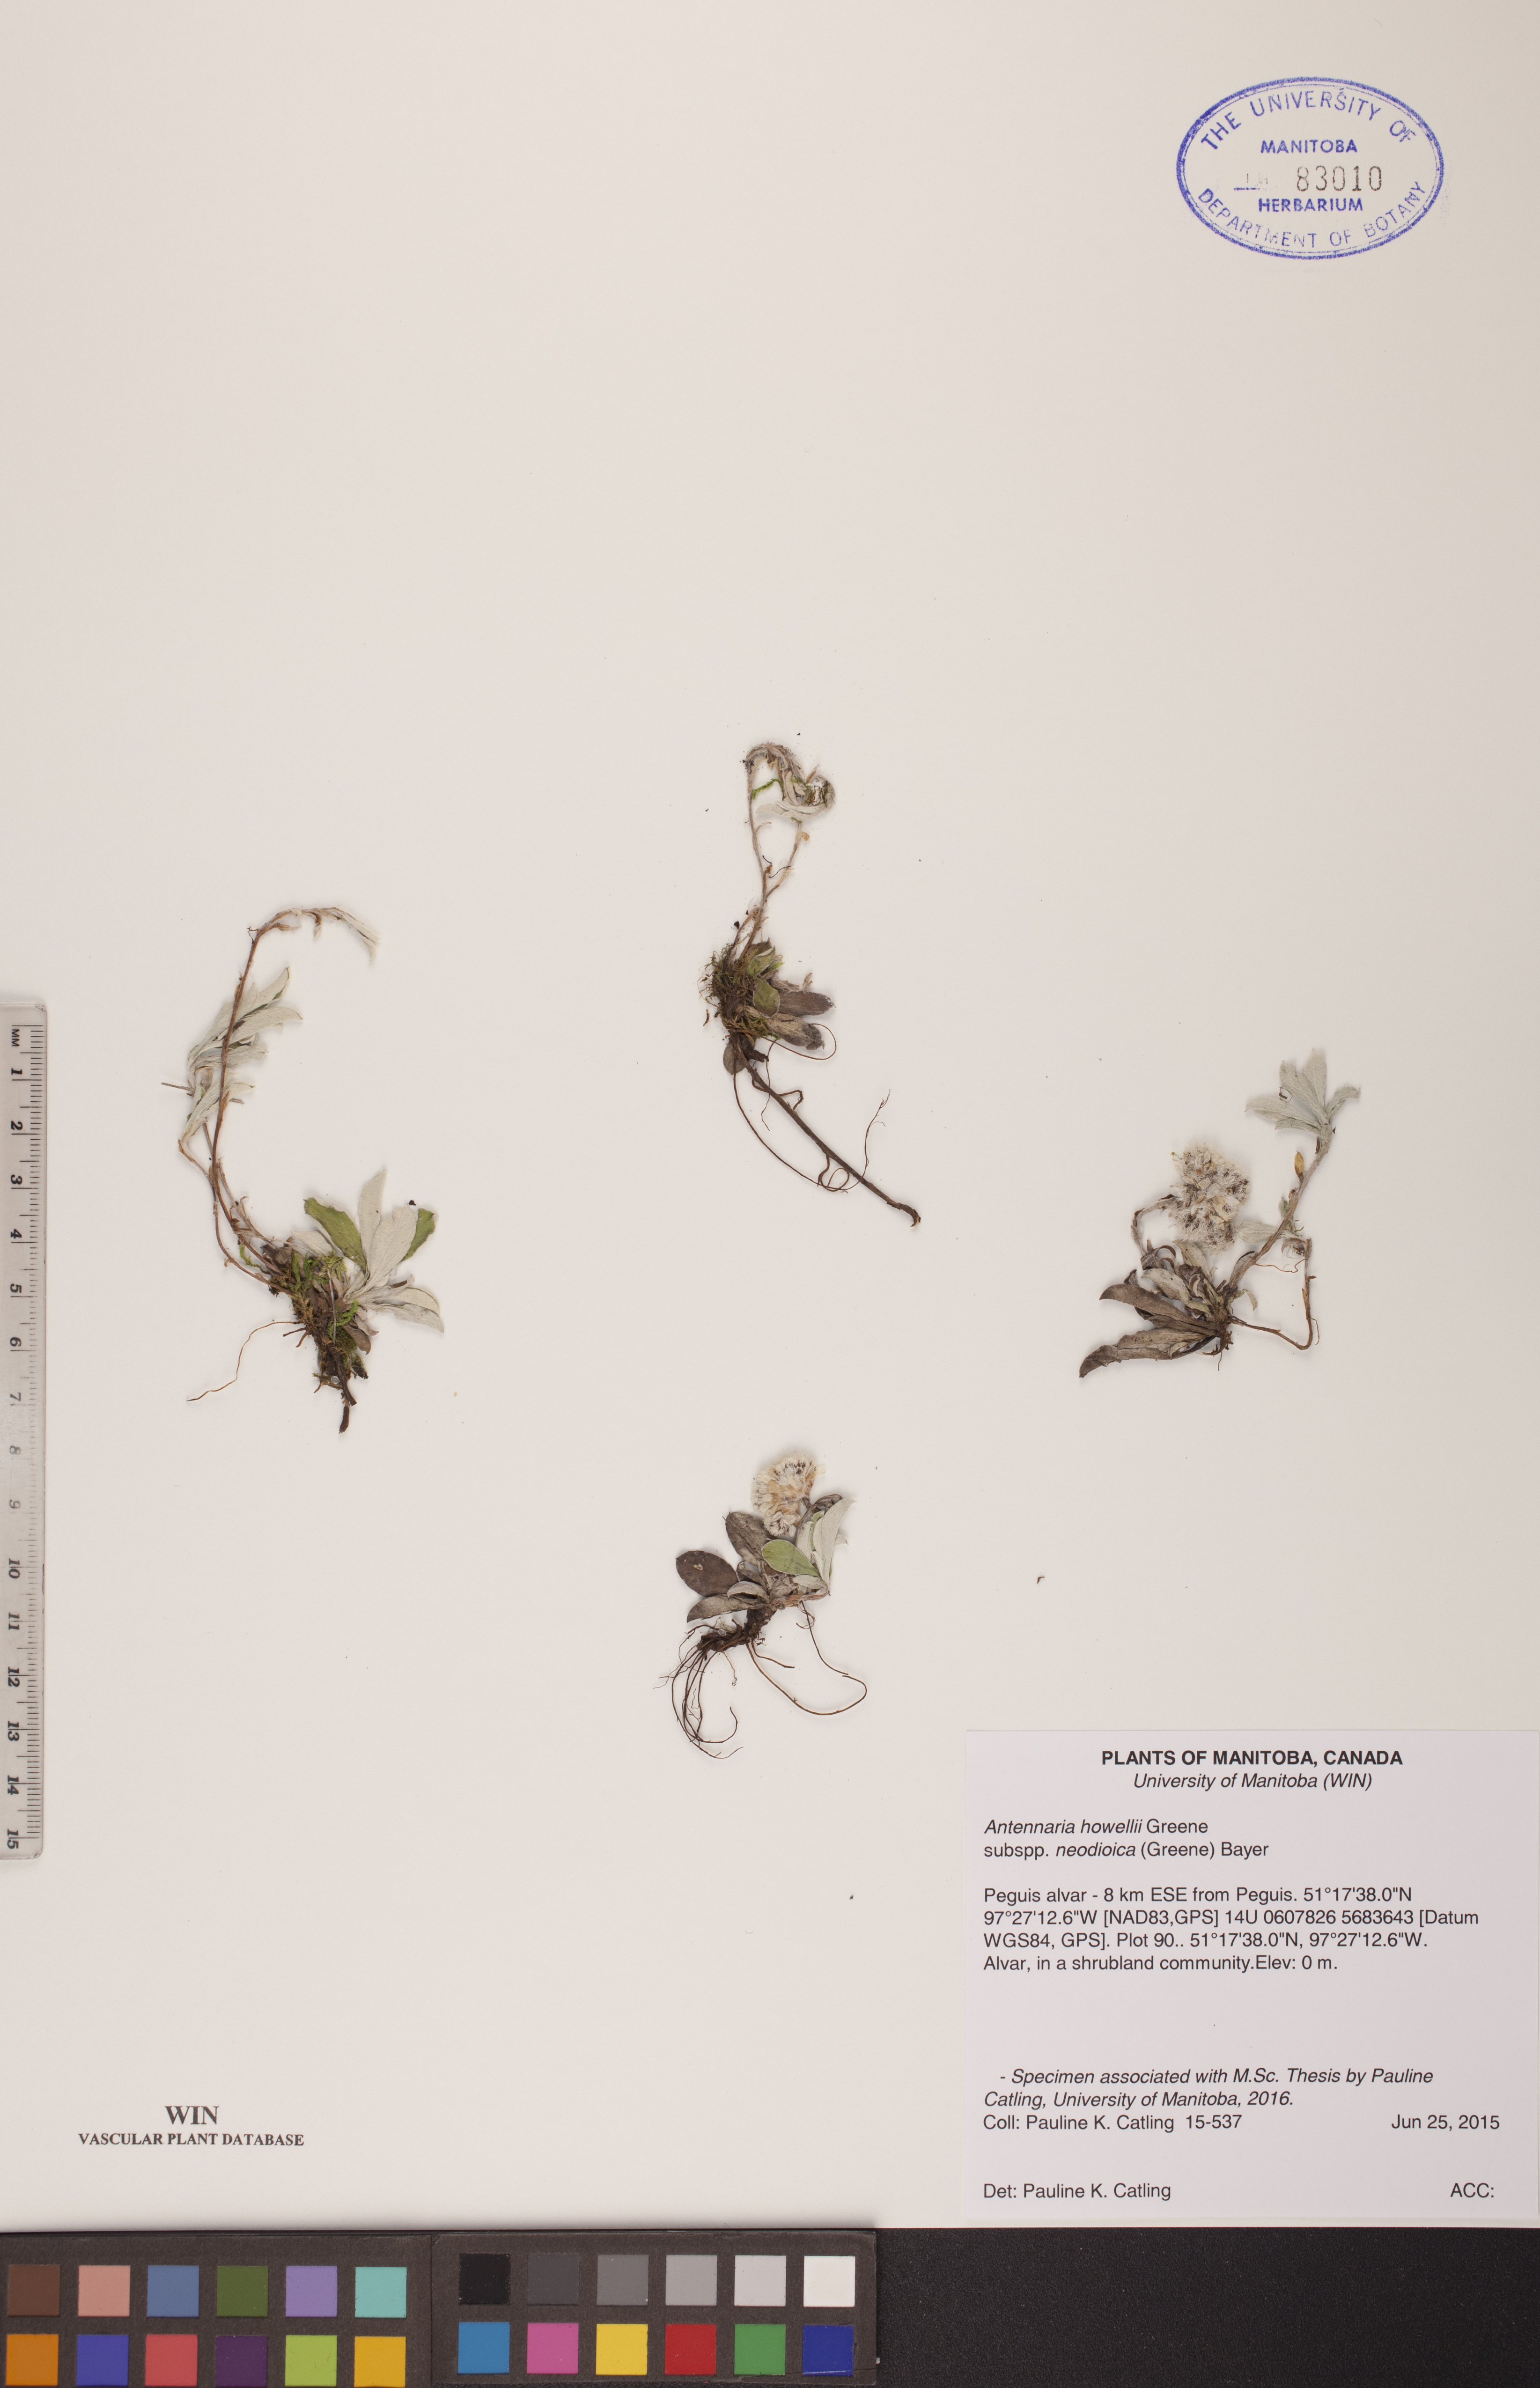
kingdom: Plantae
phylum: Tracheophyta
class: Magnoliopsida
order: Asterales
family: Asteraceae
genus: Antennaria
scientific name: Antennaria howellii
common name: Howell's pussytoes
